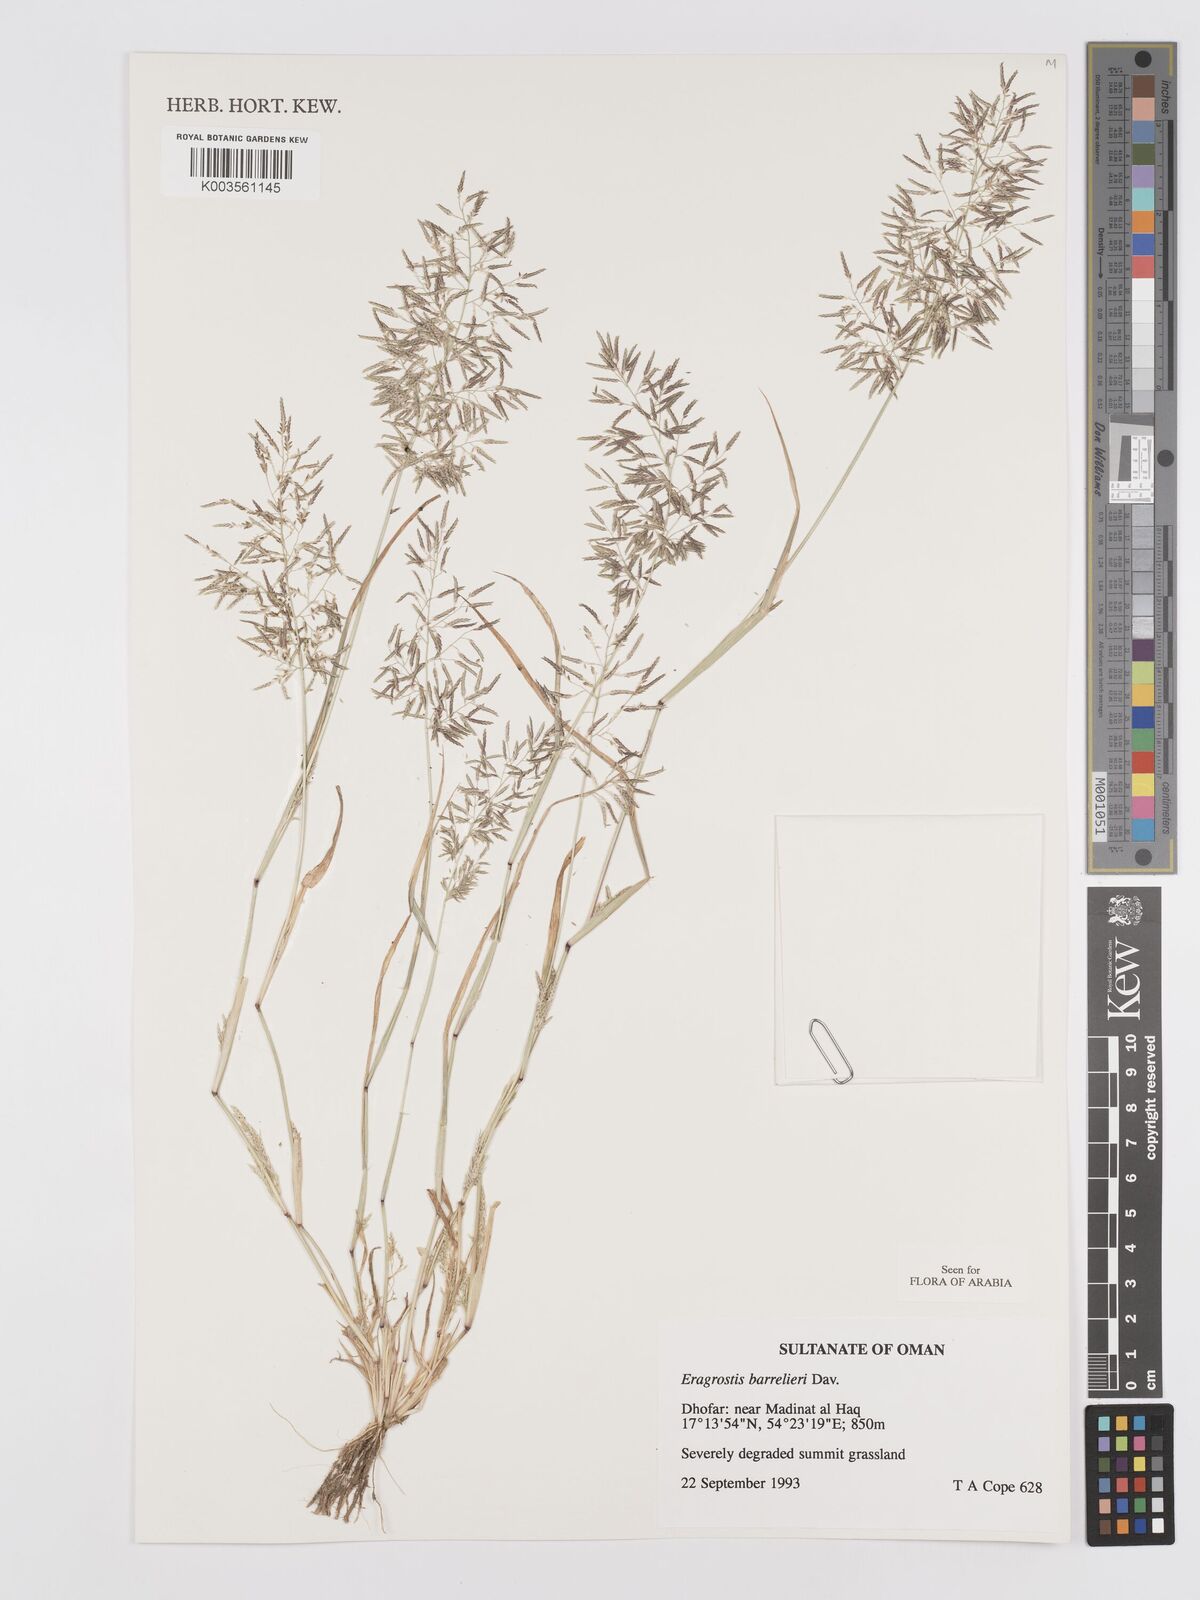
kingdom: Plantae
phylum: Tracheophyta
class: Liliopsida
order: Poales
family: Poaceae
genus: Eragrostis
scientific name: Eragrostis barrelieri
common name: Mediterranean lovegrass
